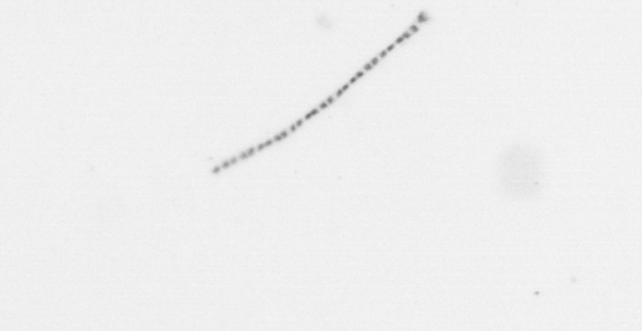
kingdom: Chromista
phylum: Ochrophyta
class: Bacillariophyceae
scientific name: Bacillariophyceae
